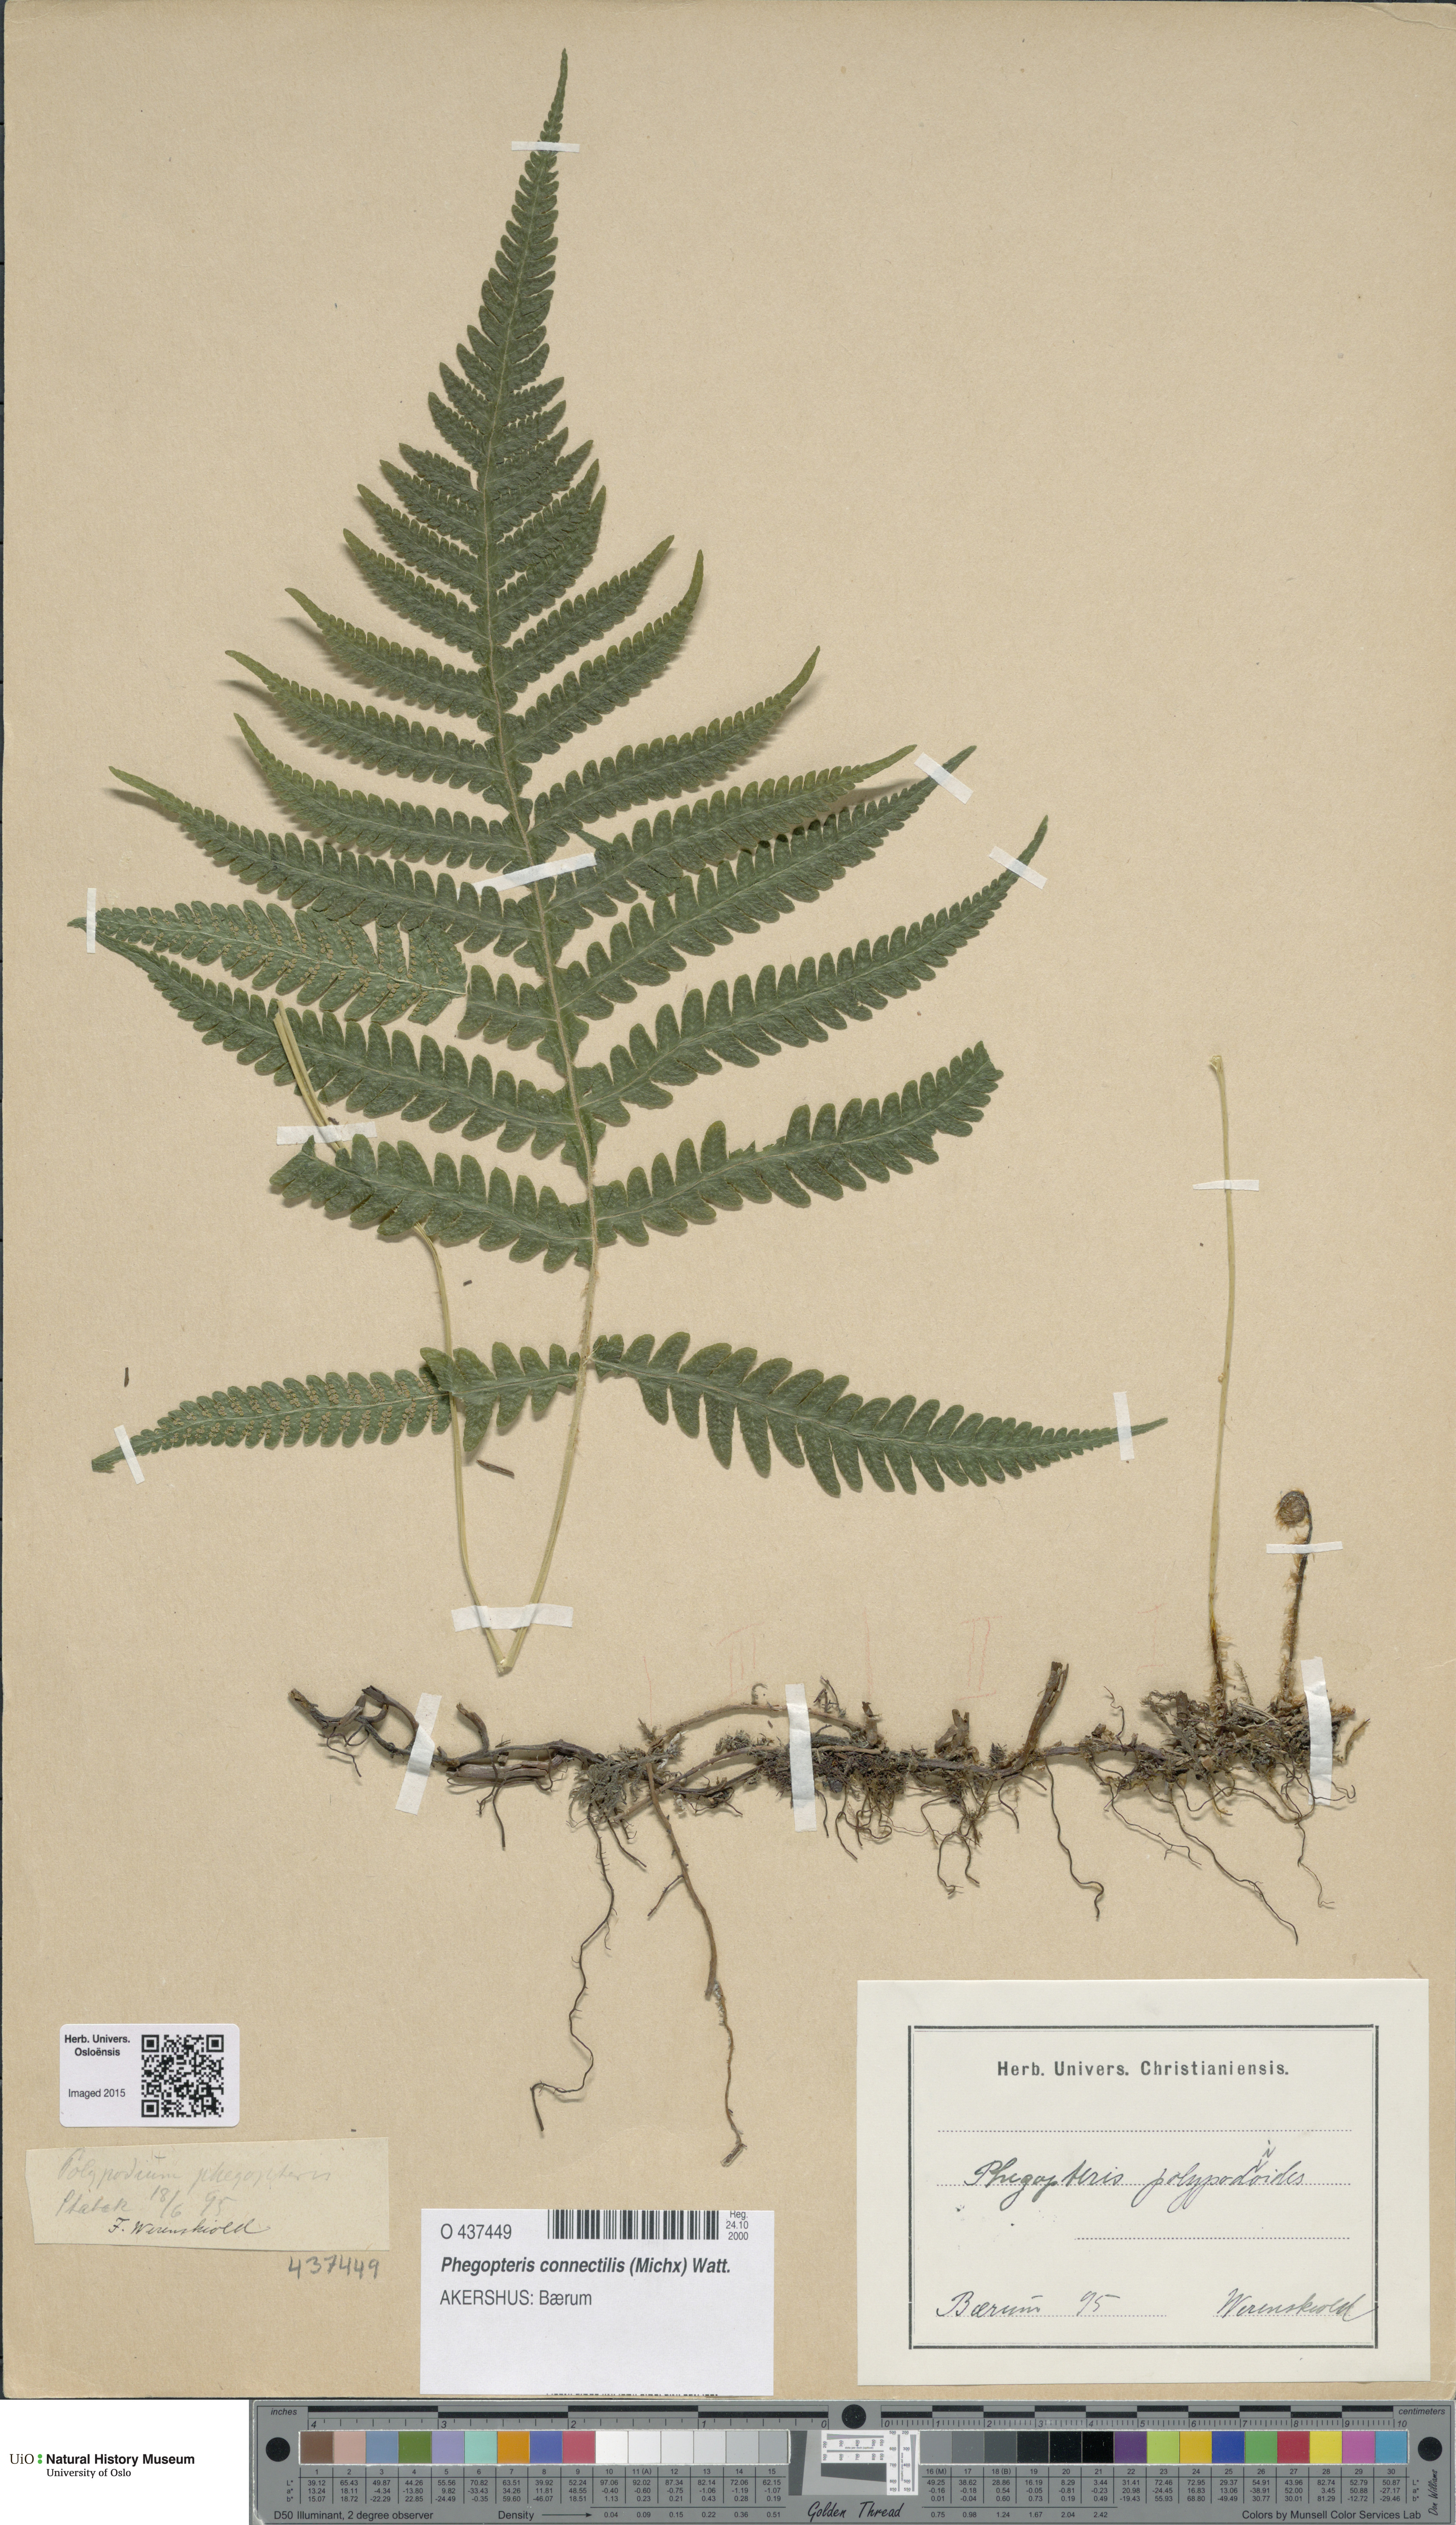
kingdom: Plantae
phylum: Tracheophyta
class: Polypodiopsida
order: Polypodiales
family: Thelypteridaceae
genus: Phegopteris
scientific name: Phegopteris connectilis
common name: Beech fern
